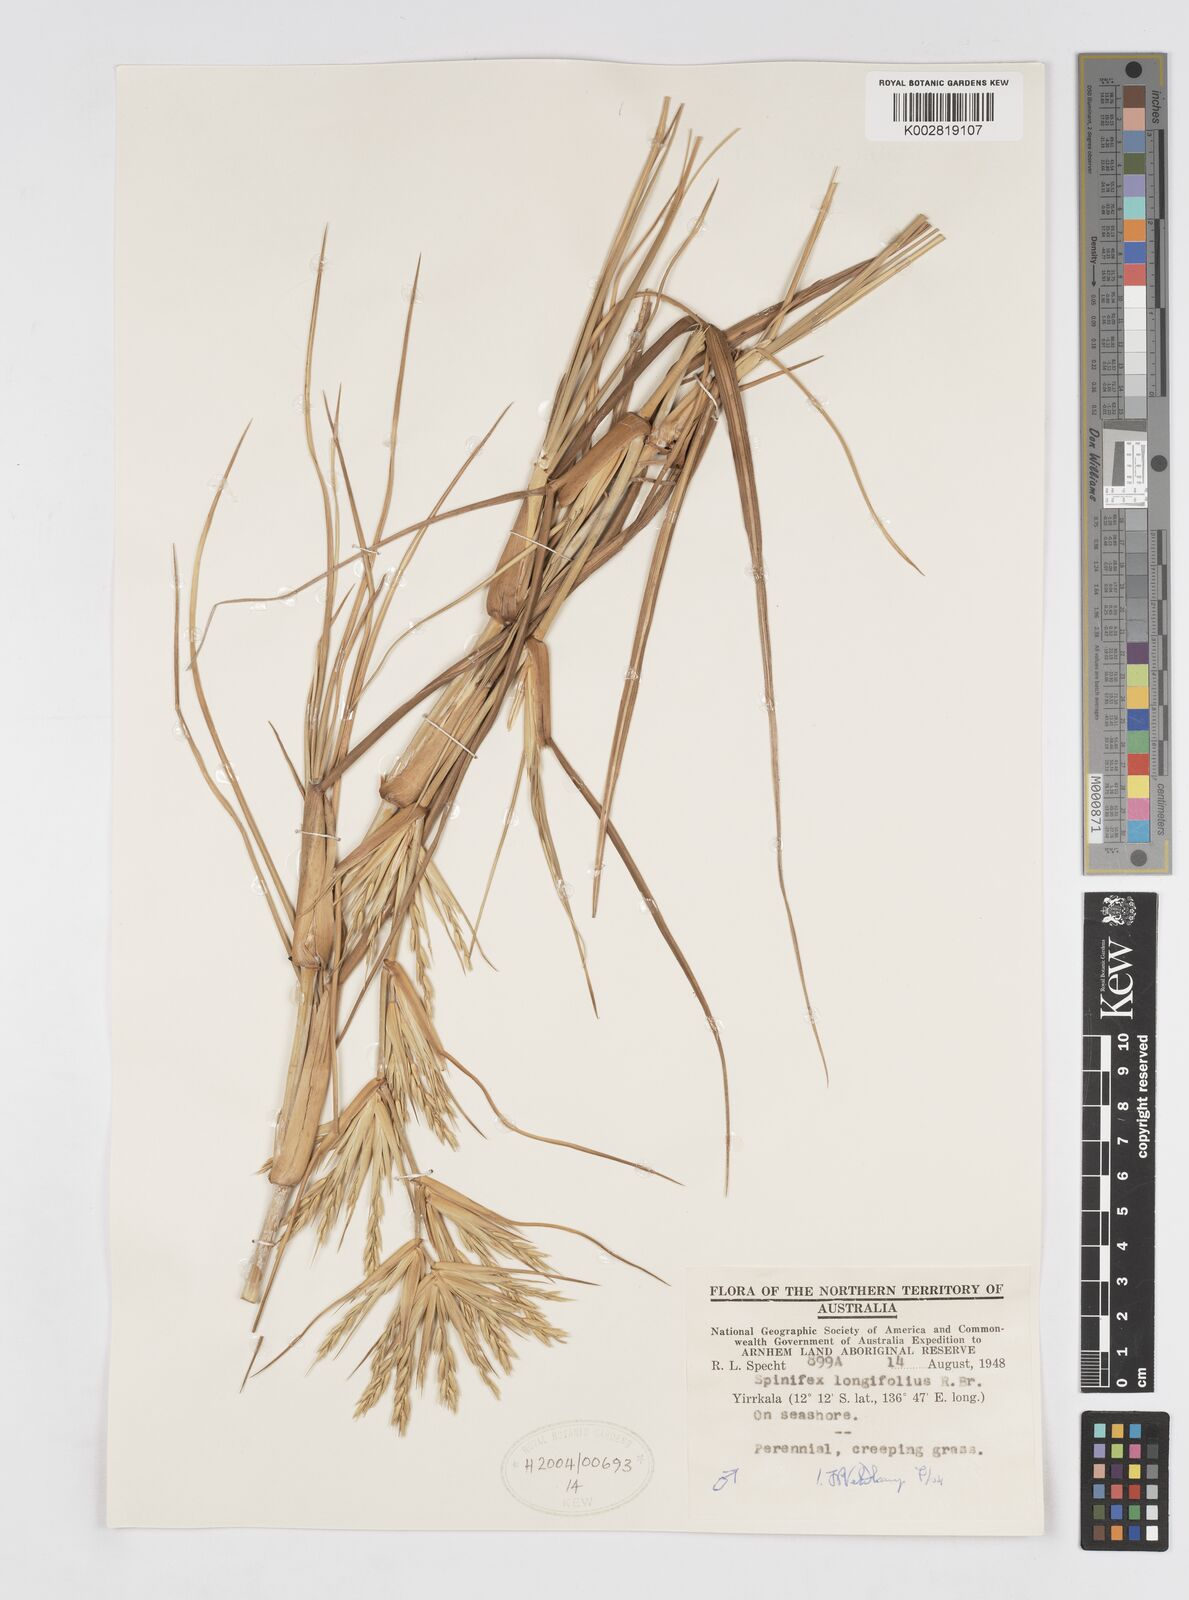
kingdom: Plantae
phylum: Tracheophyta
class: Liliopsida
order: Poales
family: Poaceae
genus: Spinifex
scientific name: Spinifex longifolius
